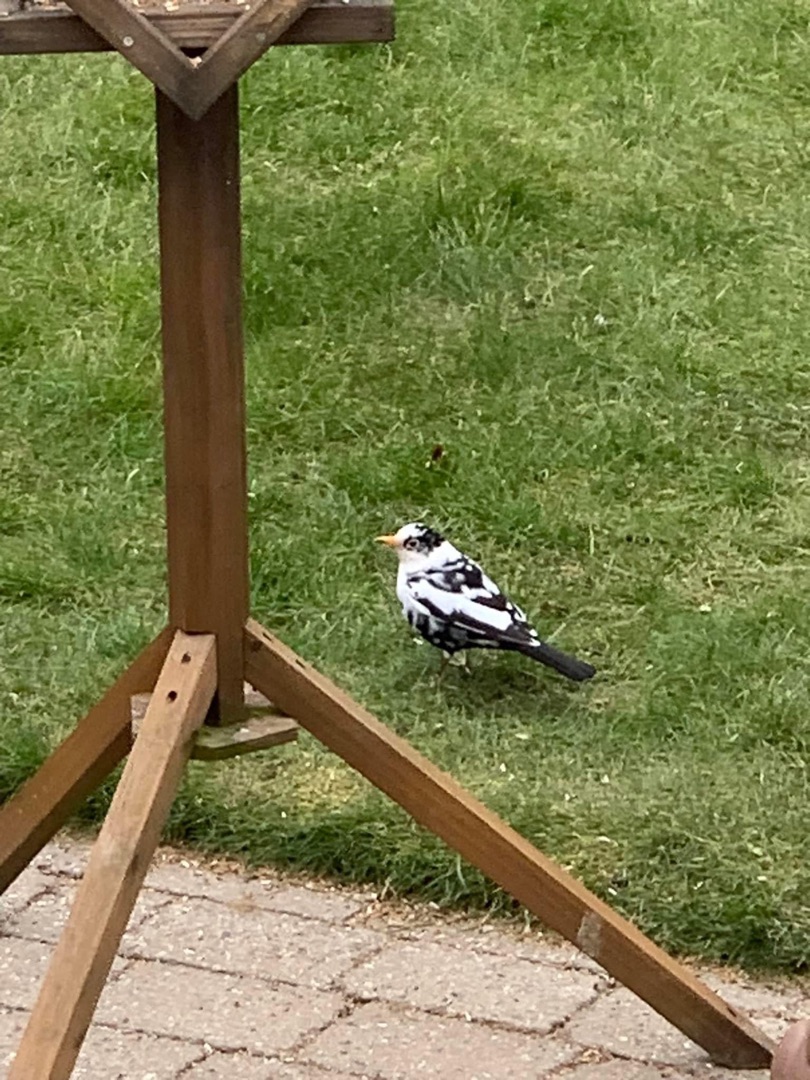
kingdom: Animalia
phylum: Chordata
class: Aves
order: Passeriformes
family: Turdidae
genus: Turdus
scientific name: Turdus merula
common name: Solsort
